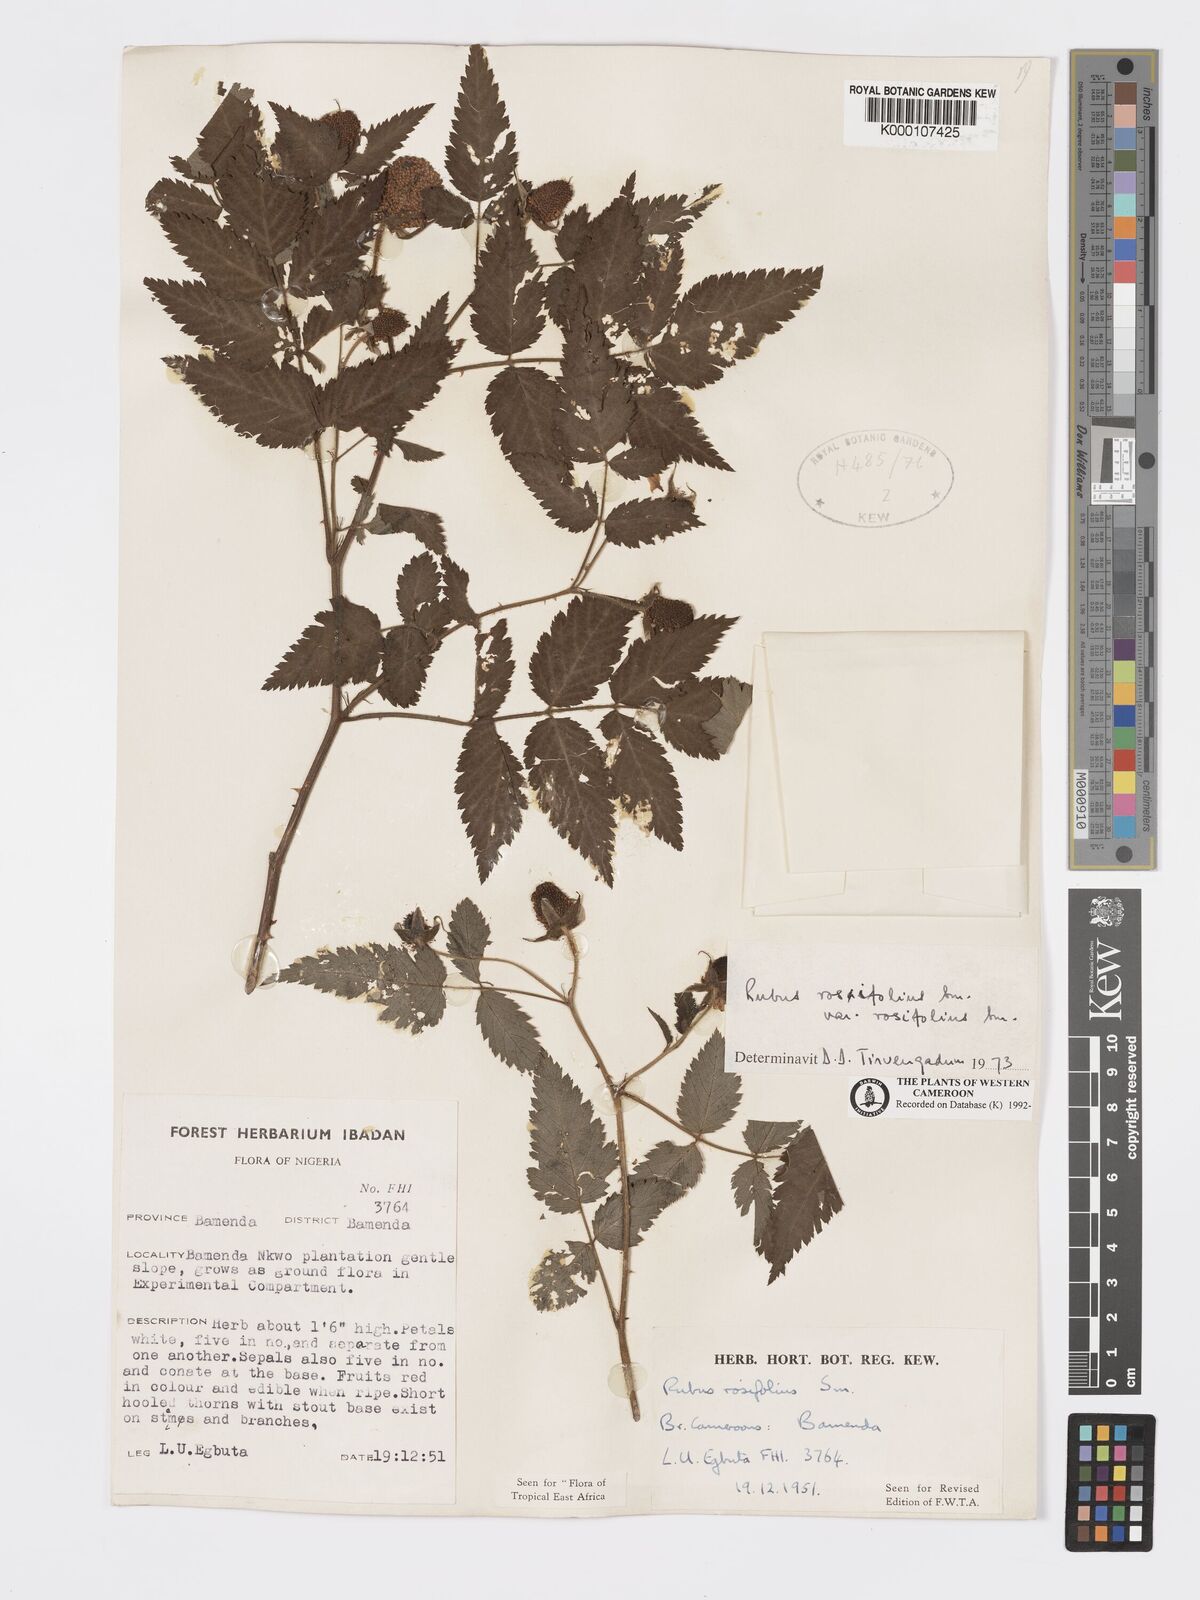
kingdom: Plantae
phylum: Tracheophyta
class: Magnoliopsida
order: Rosales
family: Rosaceae
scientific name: Rosaceae
